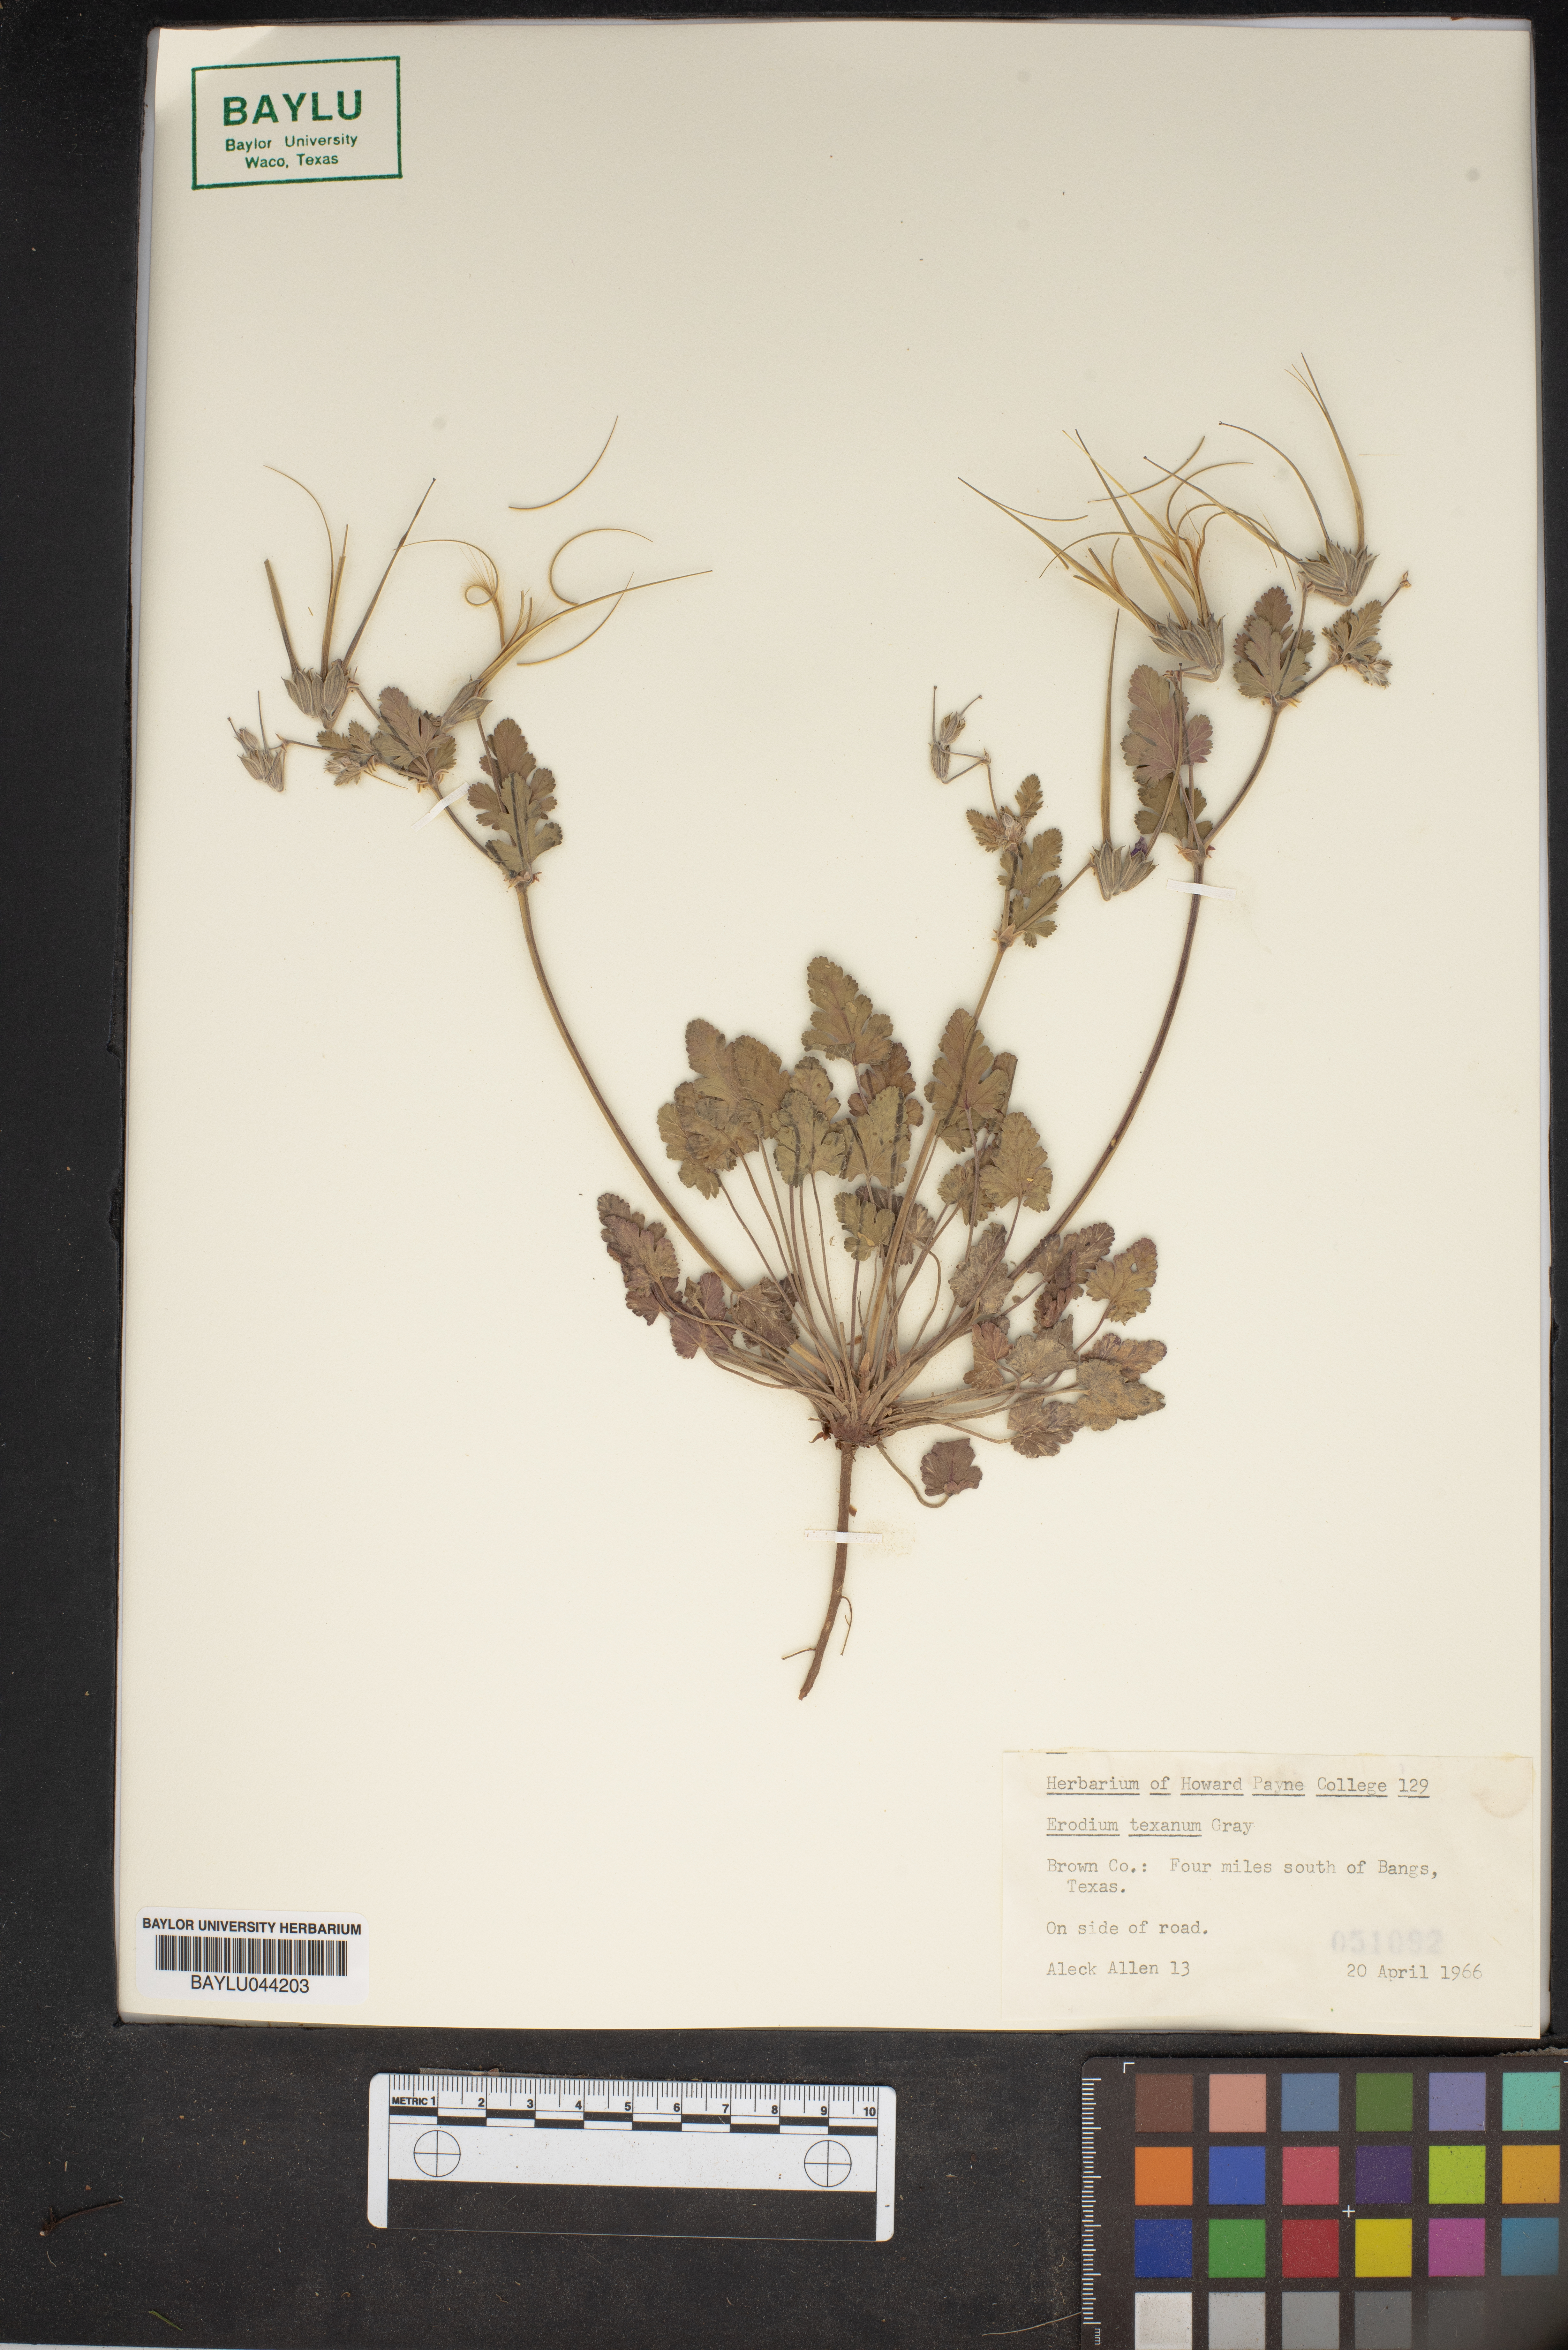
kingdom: Plantae
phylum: Tracheophyta
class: Magnoliopsida
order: Geraniales
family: Geraniaceae
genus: Erodium
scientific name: Erodium texanum
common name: Texas stork's-bill
